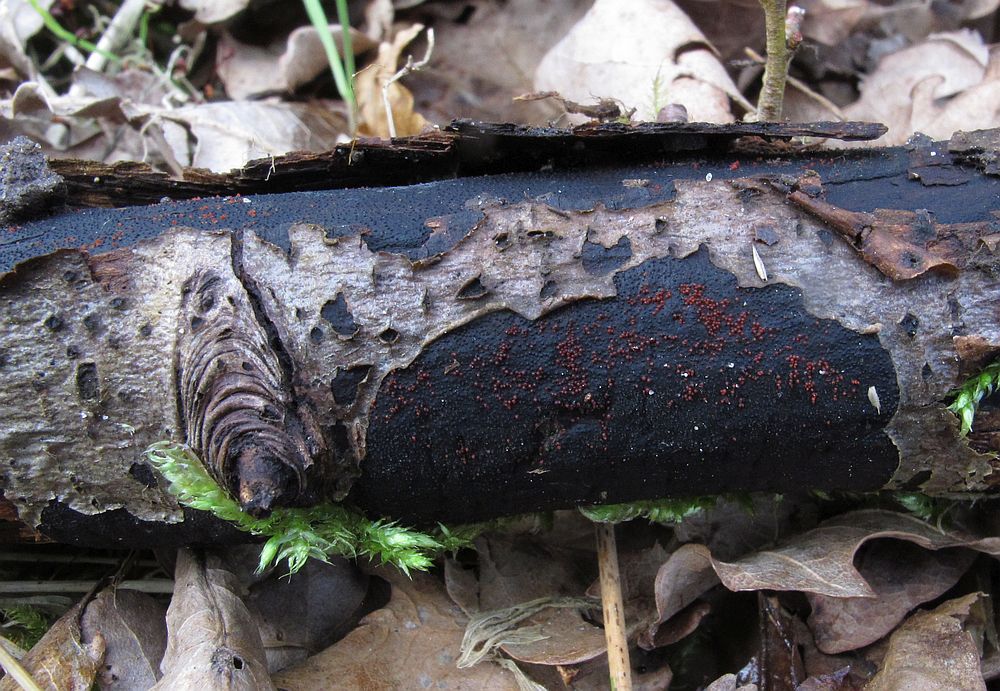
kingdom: Fungi
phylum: Ascomycota
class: Sordariomycetes
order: Hypocreales
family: Nectriaceae
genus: Dialonectria
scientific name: Dialonectria episphaeria
